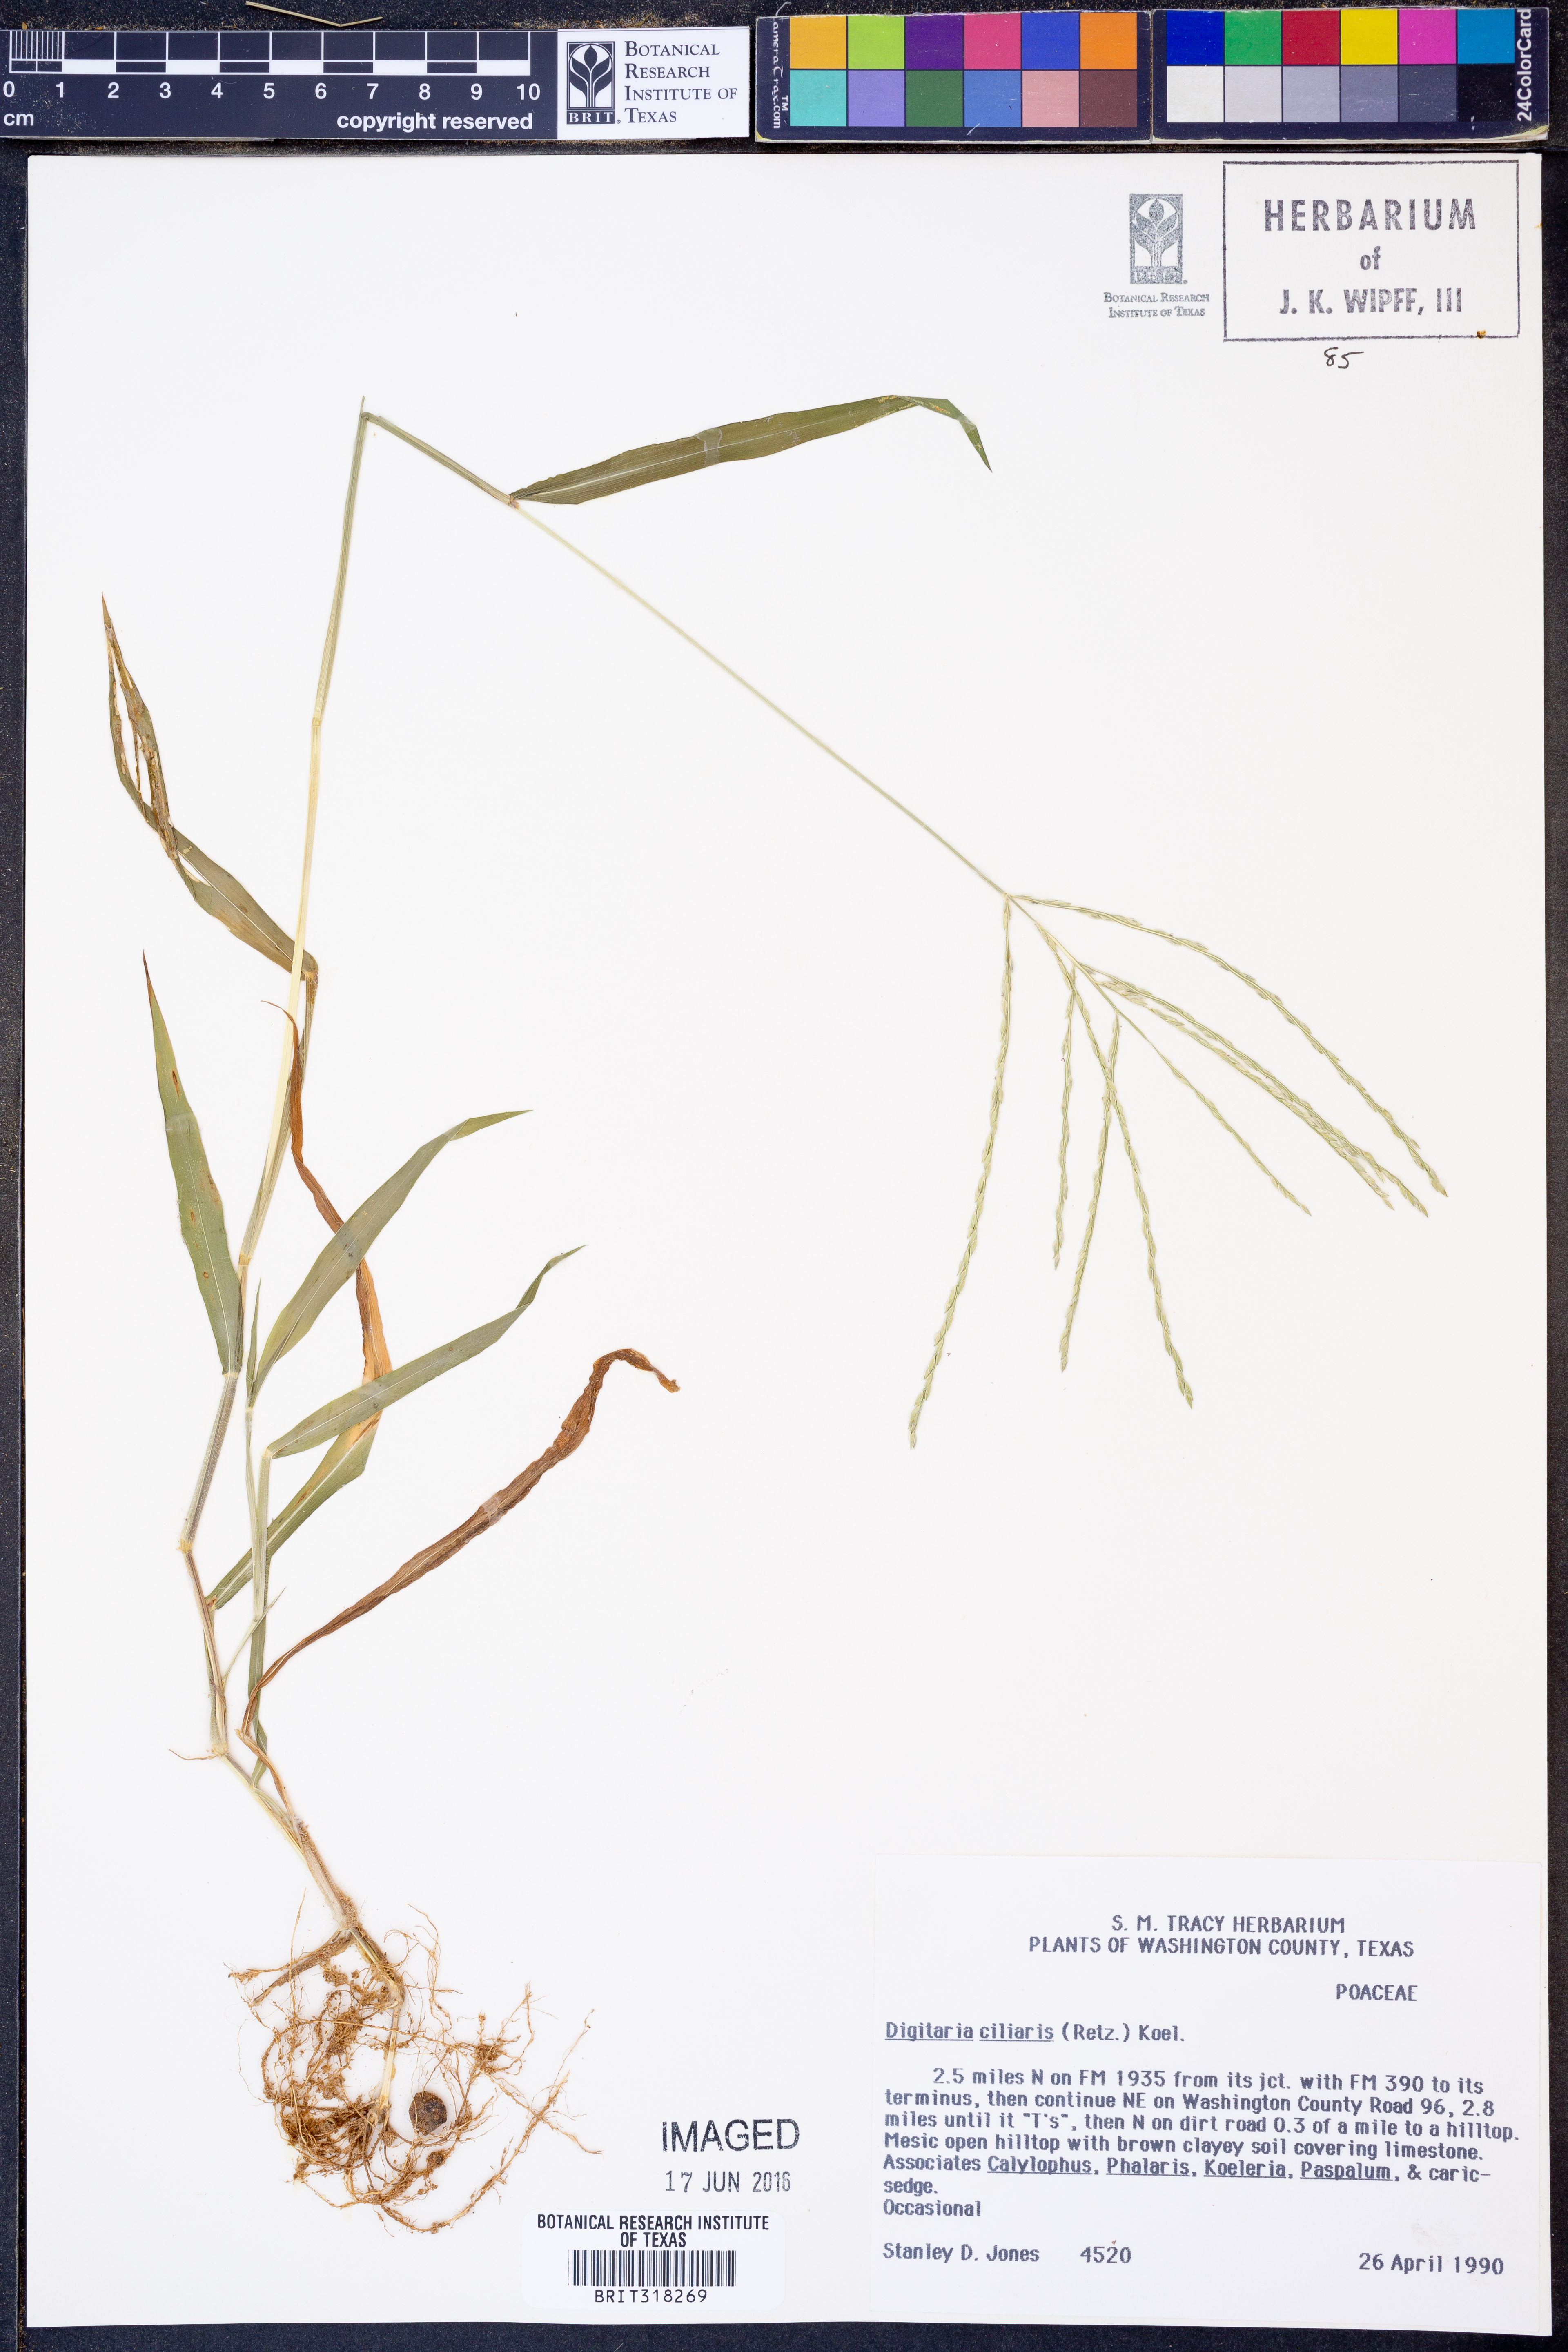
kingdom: Plantae
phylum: Tracheophyta
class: Liliopsida
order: Poales
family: Poaceae
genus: Digitaria
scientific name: Digitaria ciliaris
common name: Tropical finger-grass
